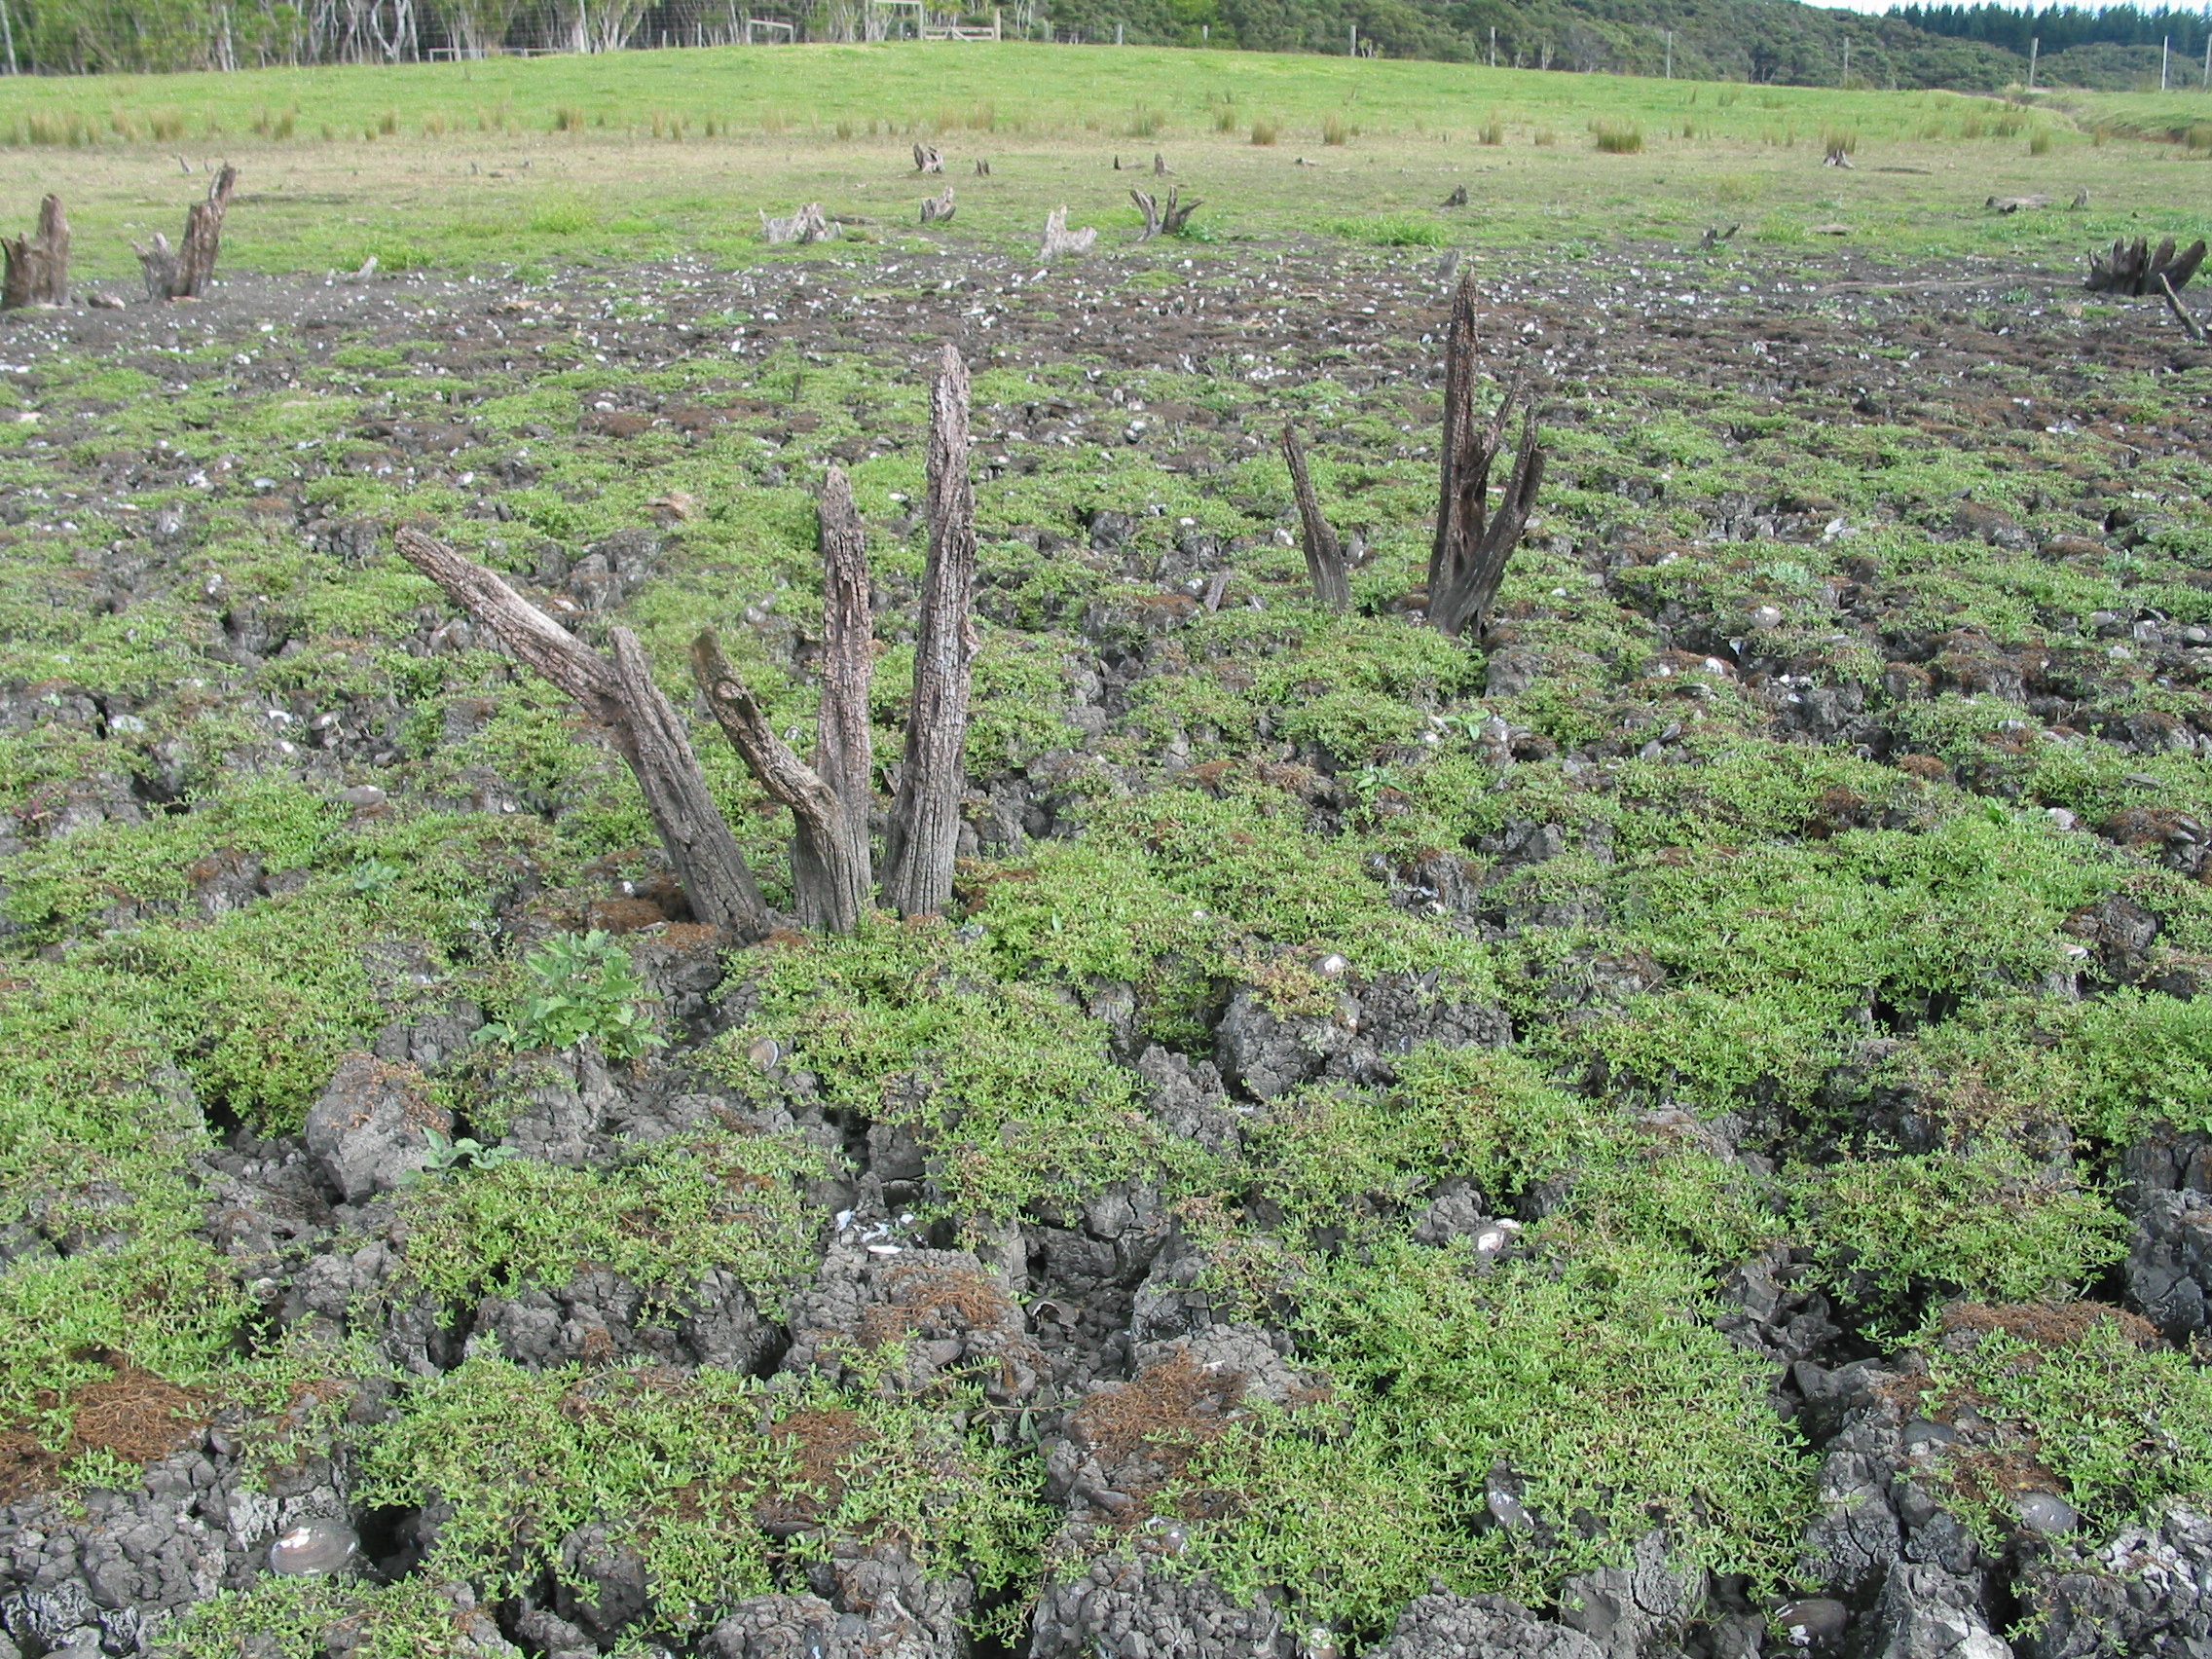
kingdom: Plantae
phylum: Tracheophyta
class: Magnoliopsida
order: Caryophyllales
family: Polygonaceae
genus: Persicaria
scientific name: Persicaria lapathifolia
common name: Curlytop knotweed
